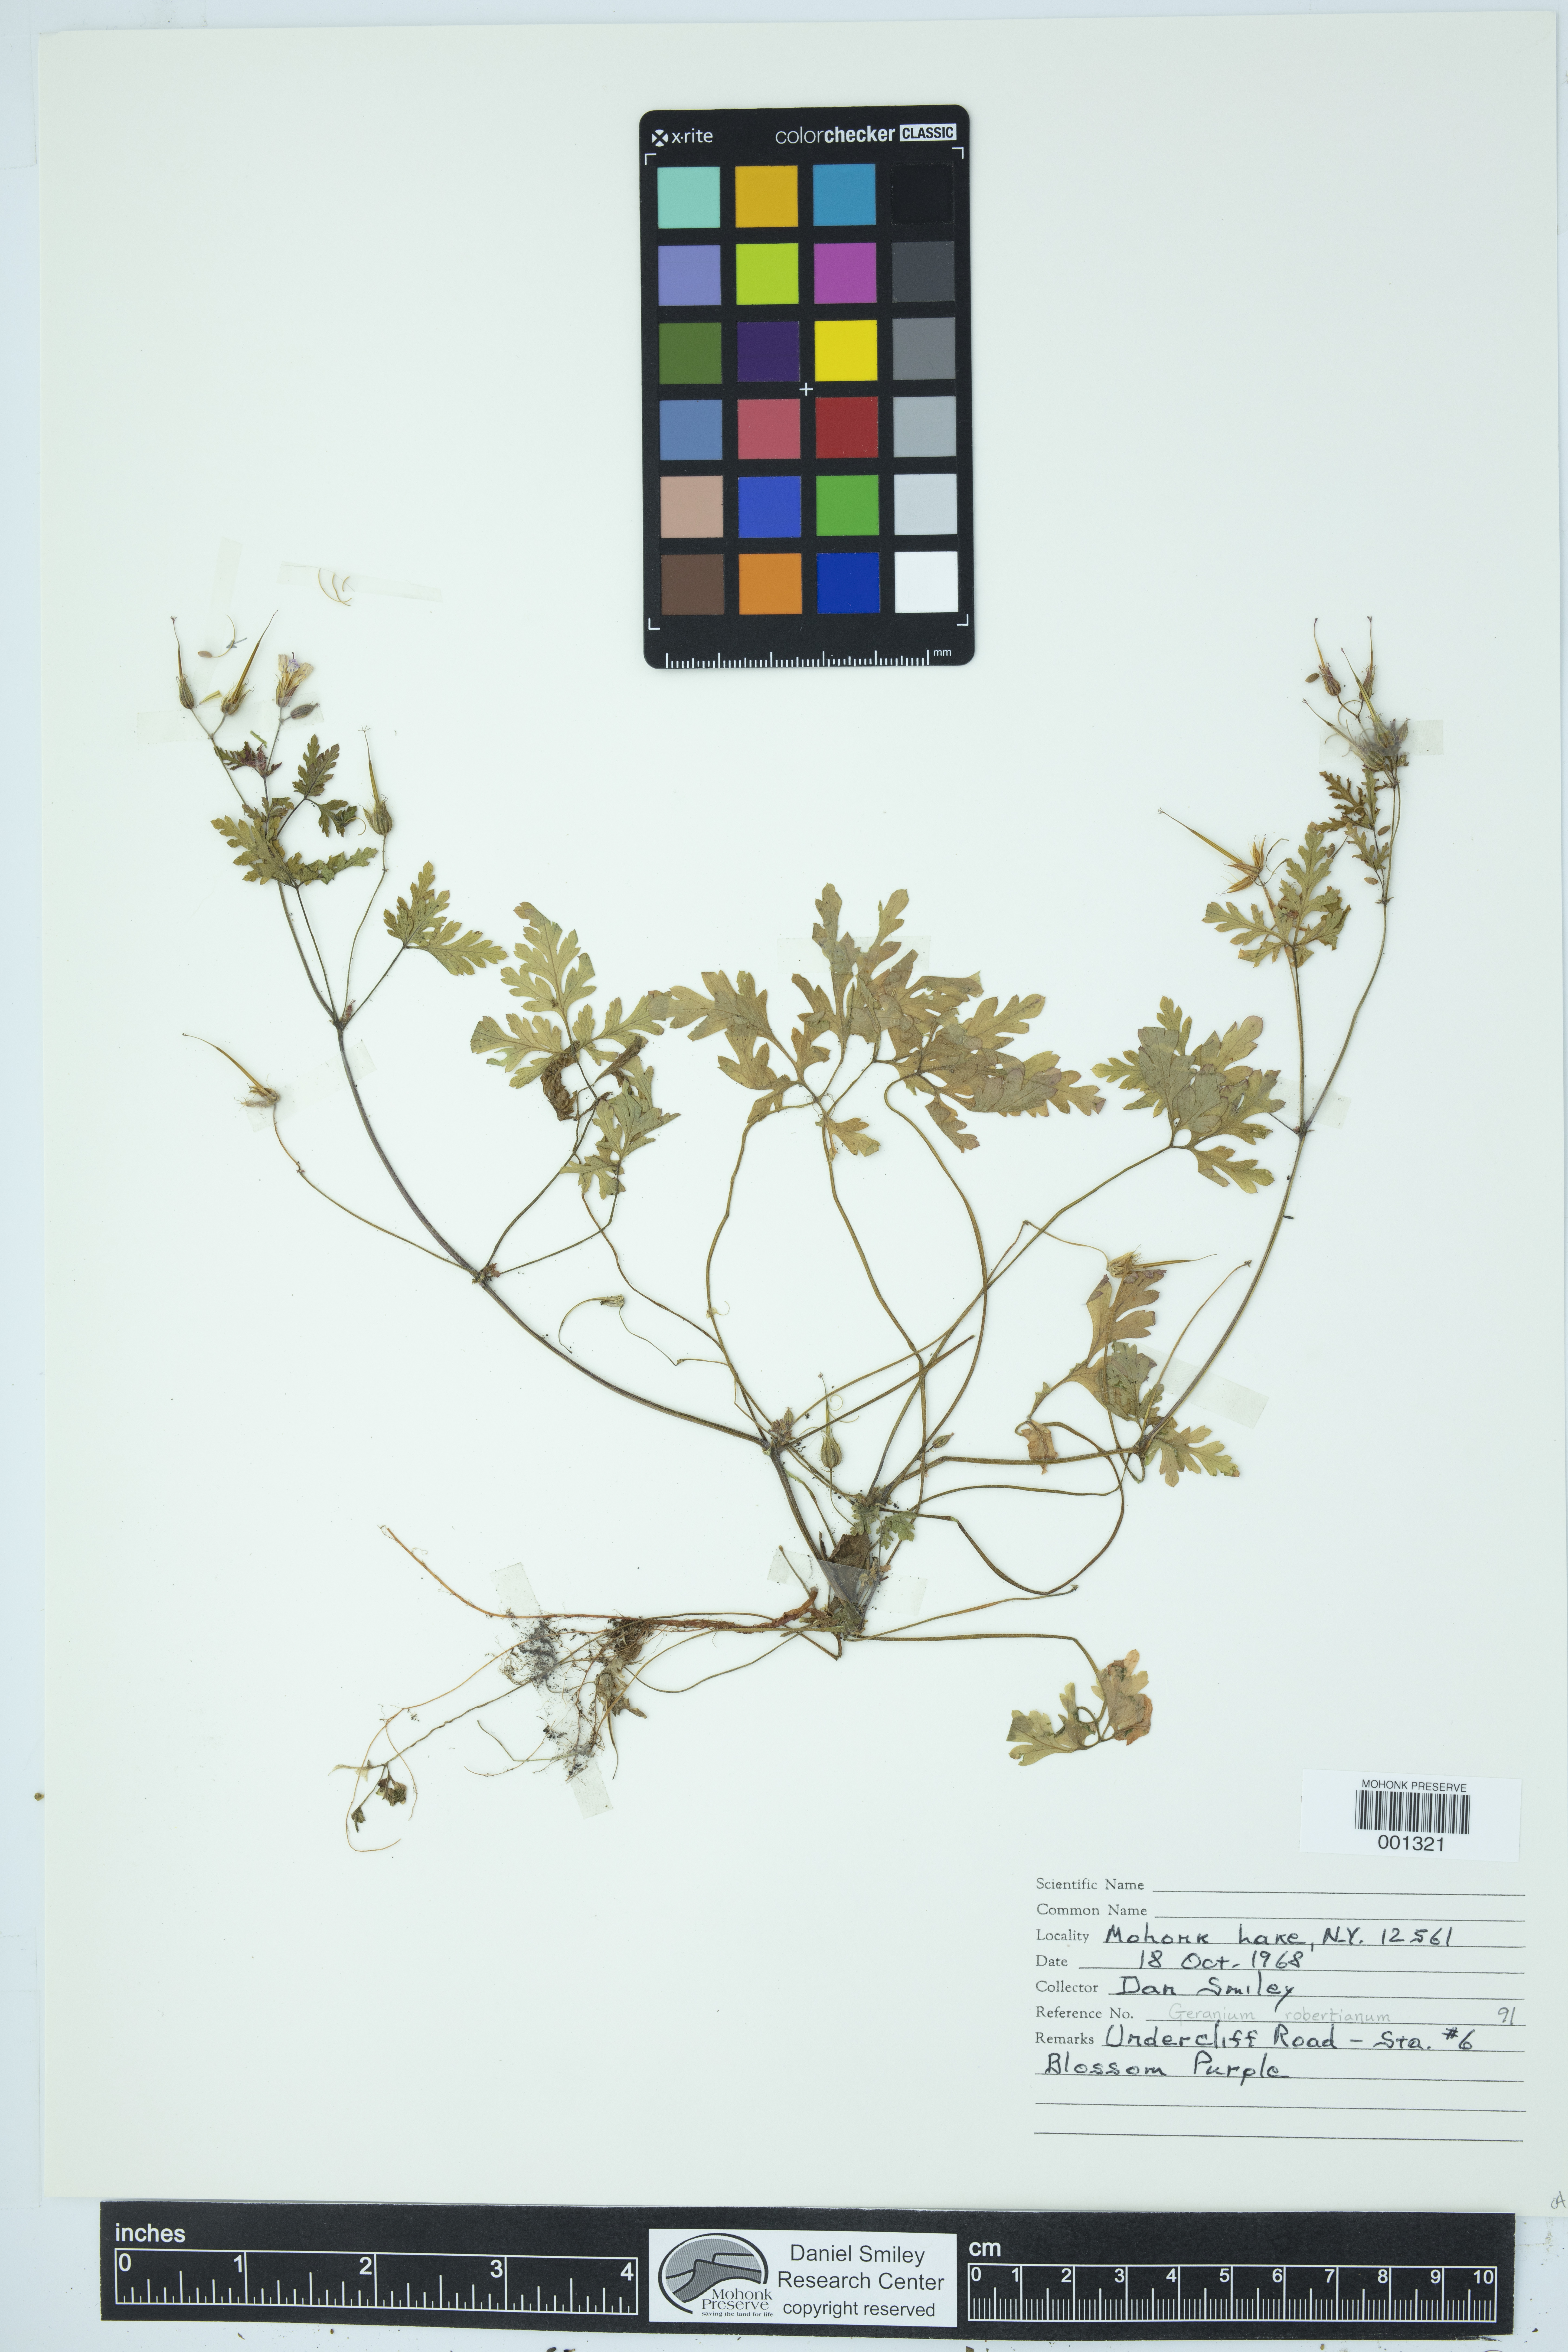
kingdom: Plantae
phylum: Tracheophyta
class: Magnoliopsida
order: Geraniales
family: Geraniaceae
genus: Geranium
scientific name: Geranium robertianum
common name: Herb-robert
